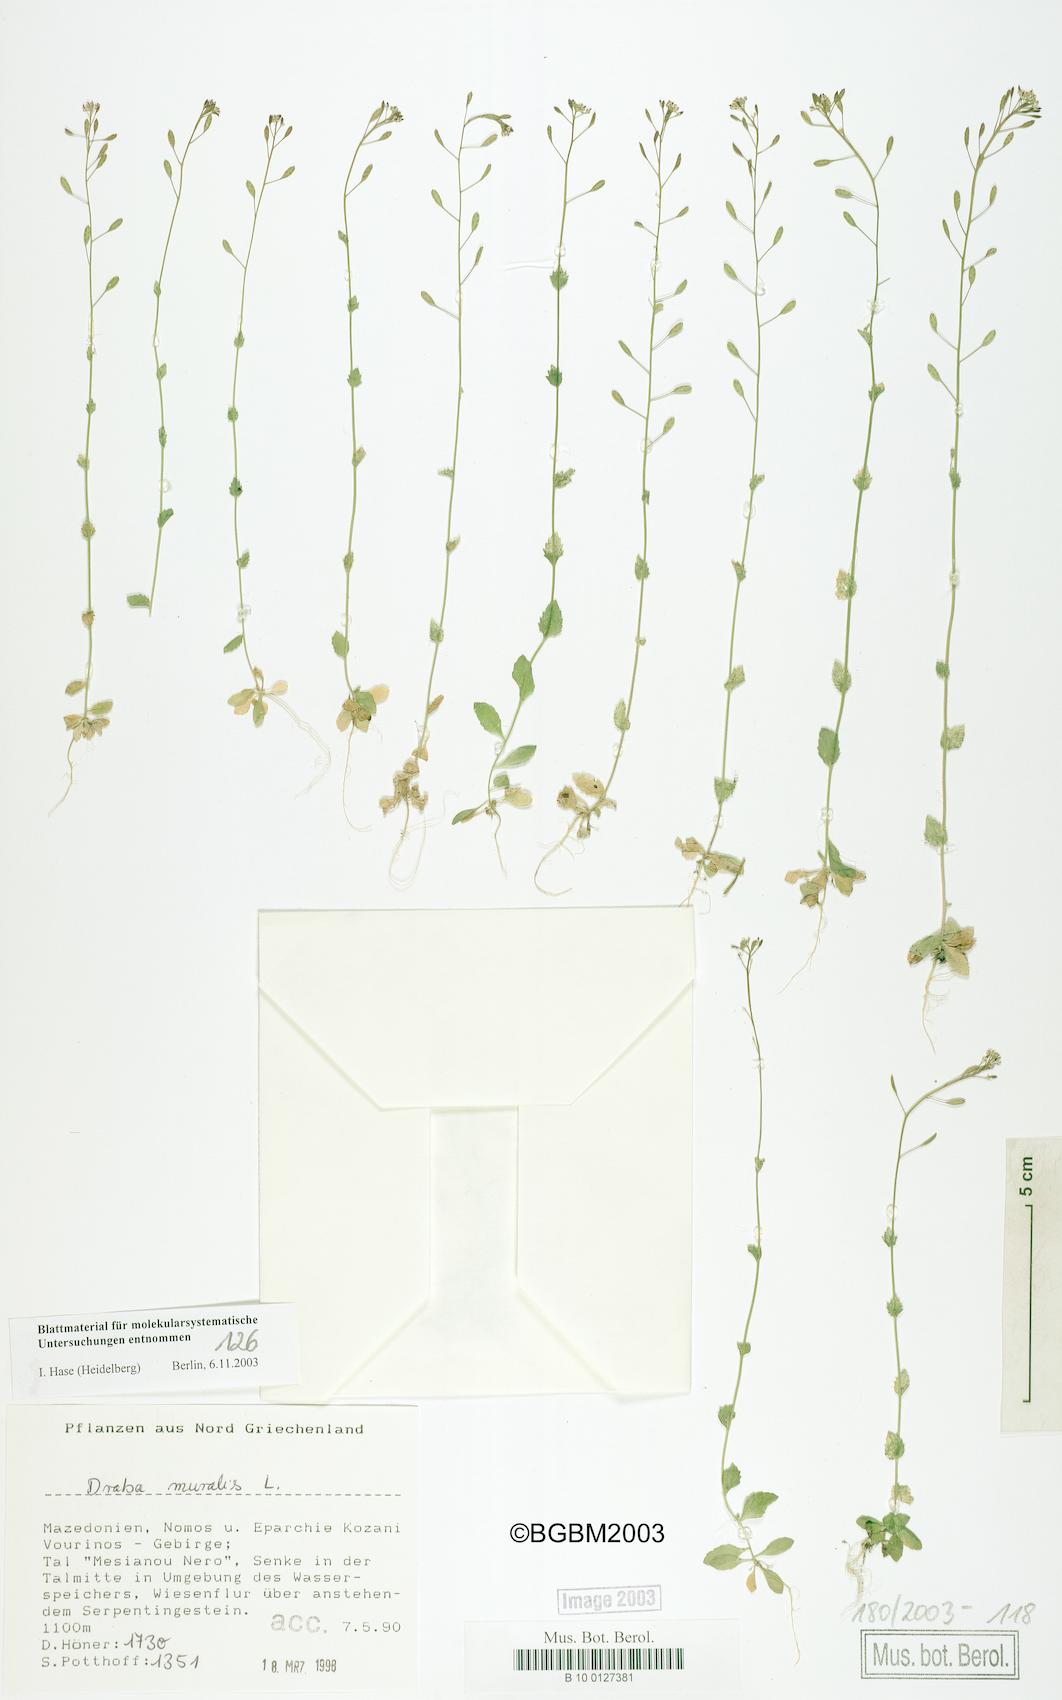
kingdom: Plantae
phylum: Tracheophyta
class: Magnoliopsida
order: Brassicales
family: Brassicaceae
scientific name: Brassicaceae
